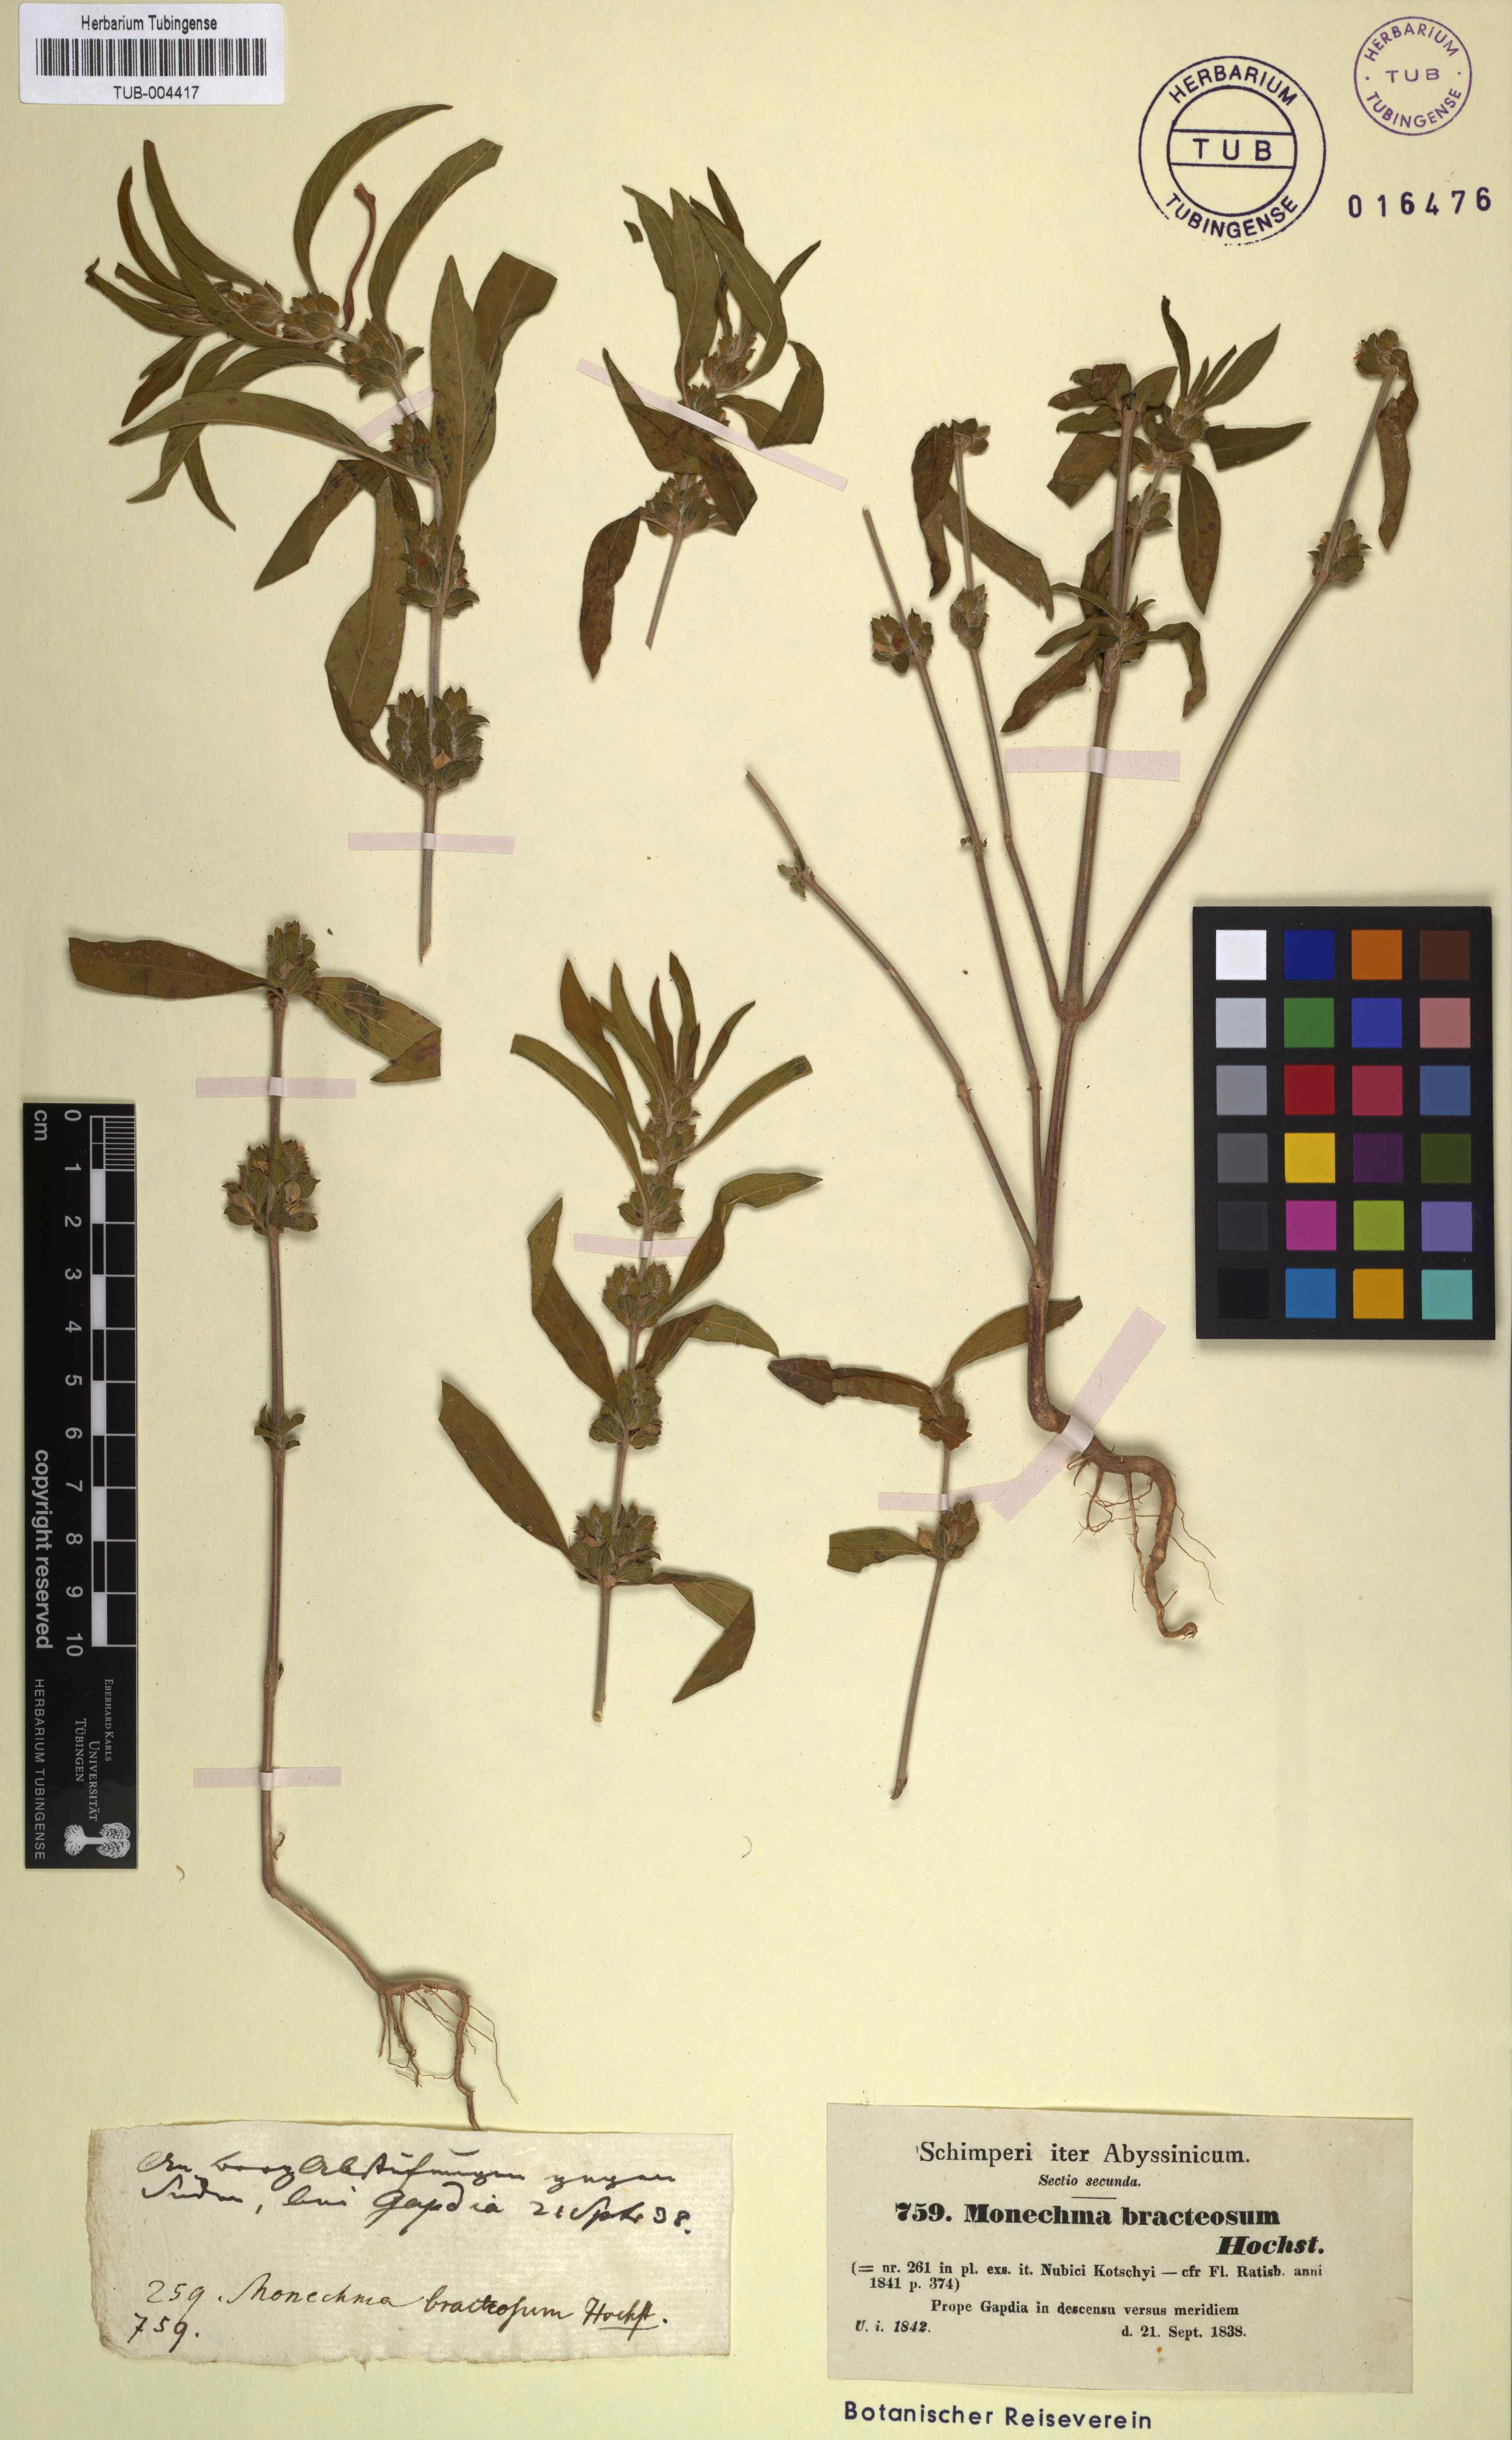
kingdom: Plantae
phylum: Tracheophyta
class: Magnoliopsida
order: Lamiales
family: Acanthaceae
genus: Monechma
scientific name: Monechma debile
